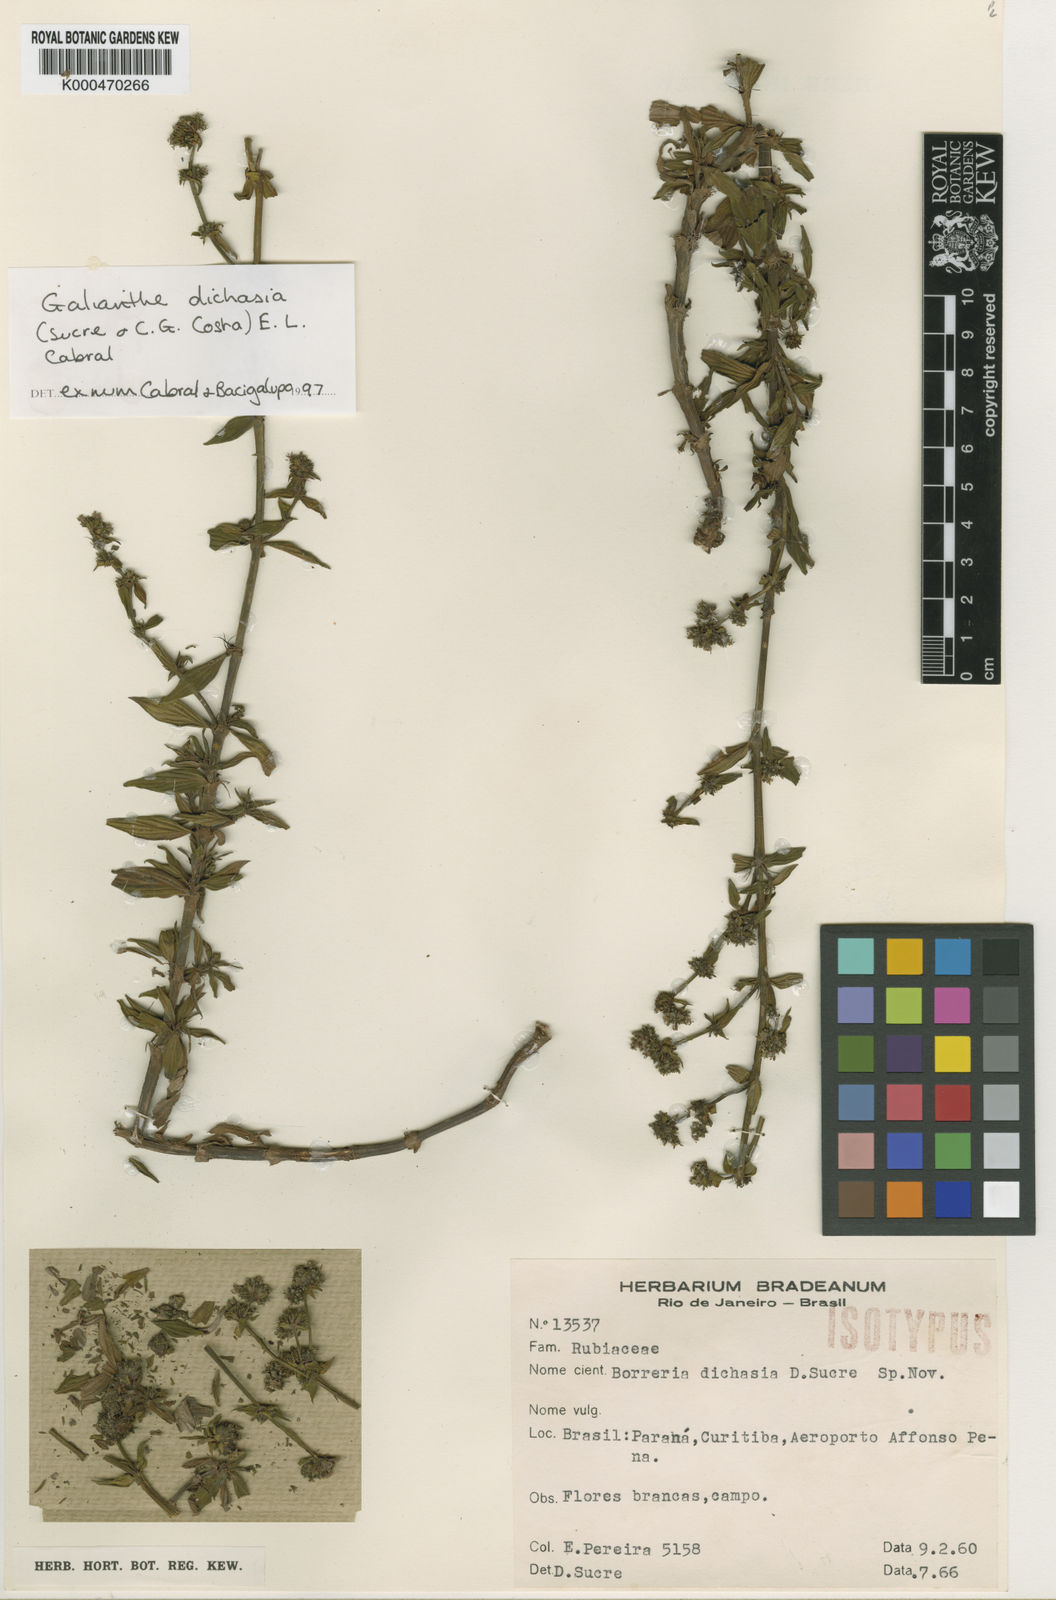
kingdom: Plantae
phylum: Tracheophyta
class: Magnoliopsida
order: Gentianales
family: Rubiaceae
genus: Galianthe
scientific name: Galianthe cymosa
